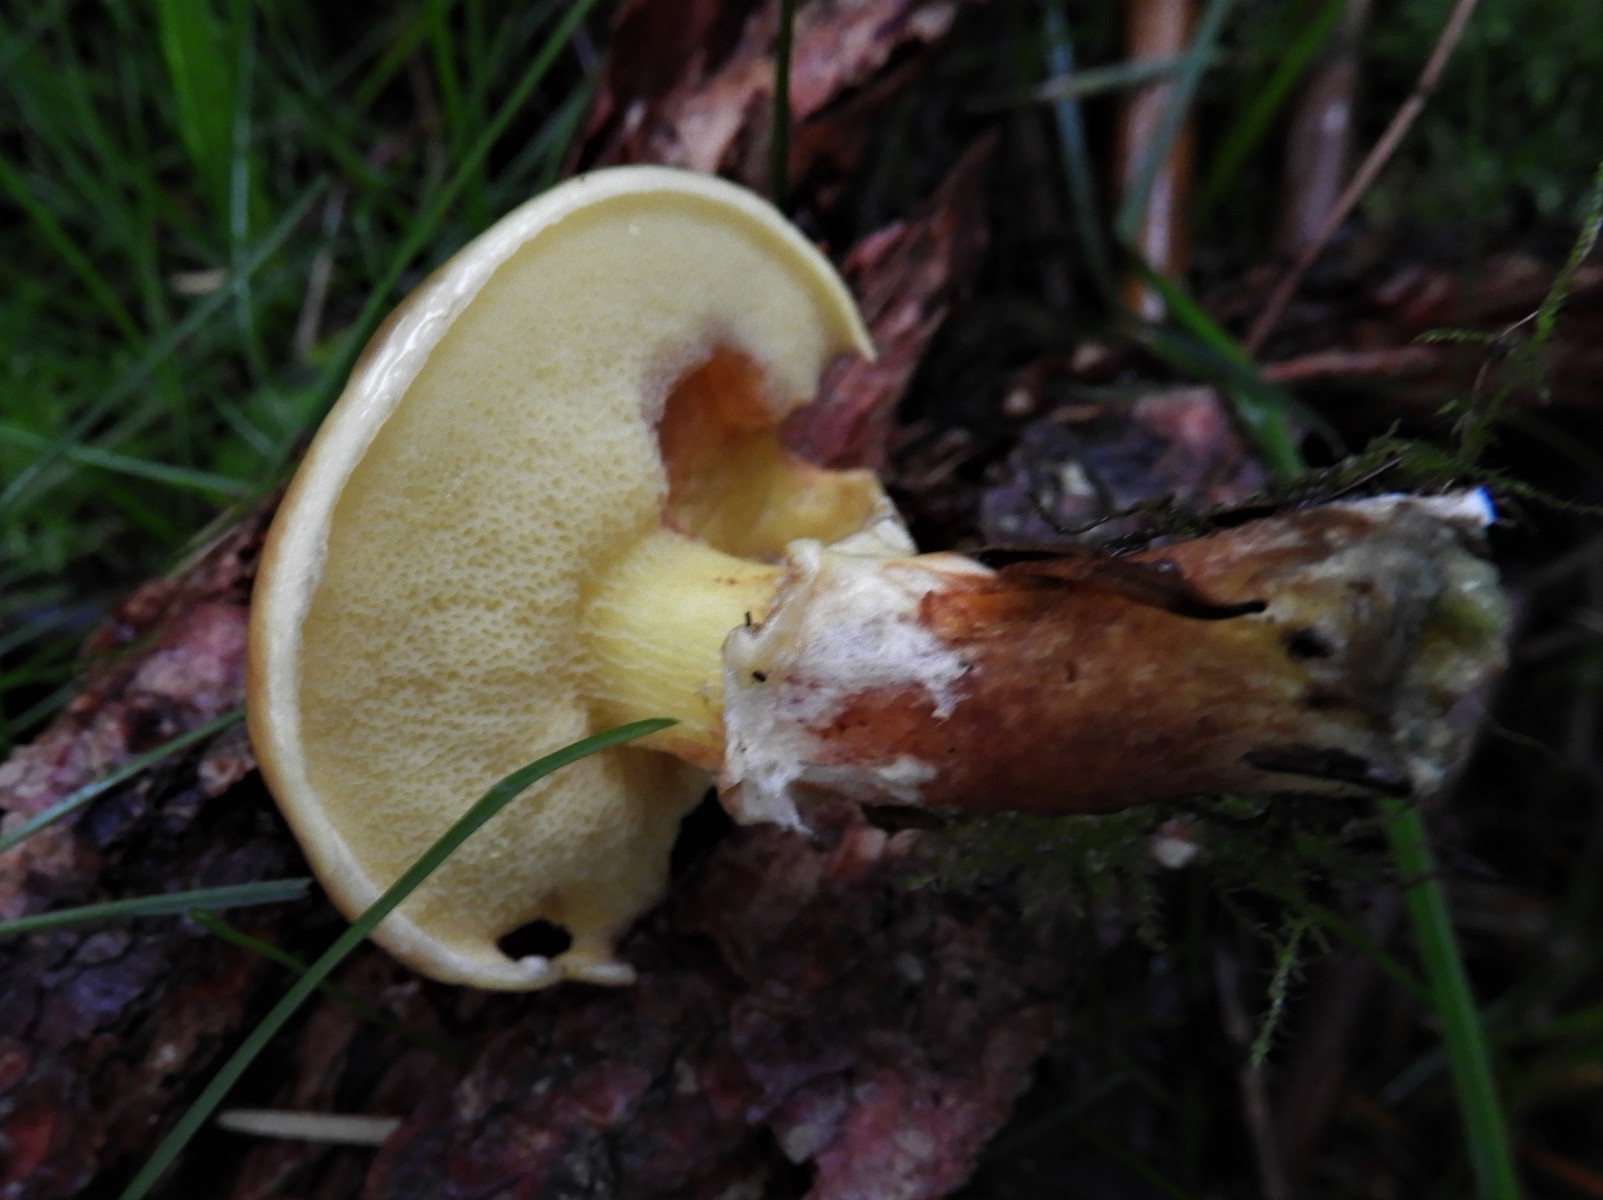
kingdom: Fungi
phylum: Basidiomycota
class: Agaricomycetes
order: Boletales
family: Suillaceae
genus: Suillus
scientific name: Suillus grevillei
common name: lærke-slimrørhat
